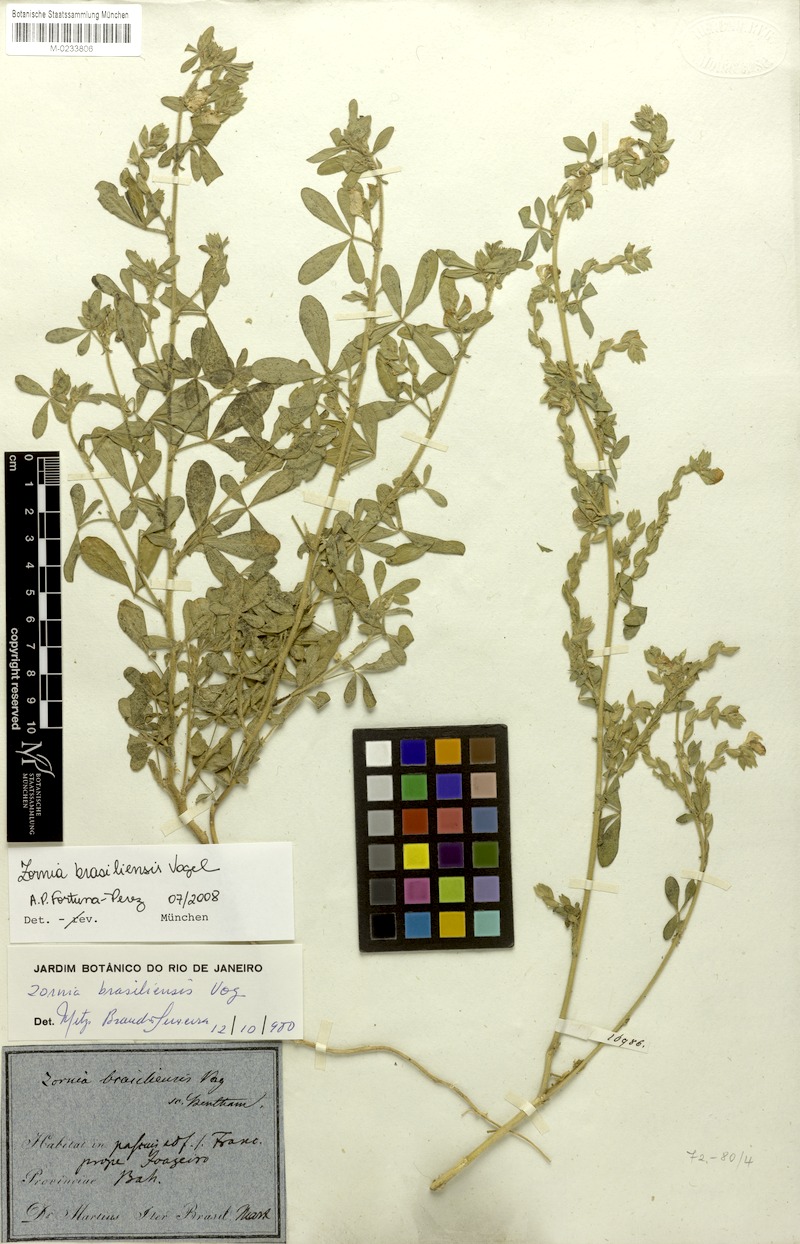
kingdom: Plantae
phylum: Tracheophyta
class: Magnoliopsida
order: Fabales
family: Fabaceae
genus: Zornia
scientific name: Zornia brasiliensis
